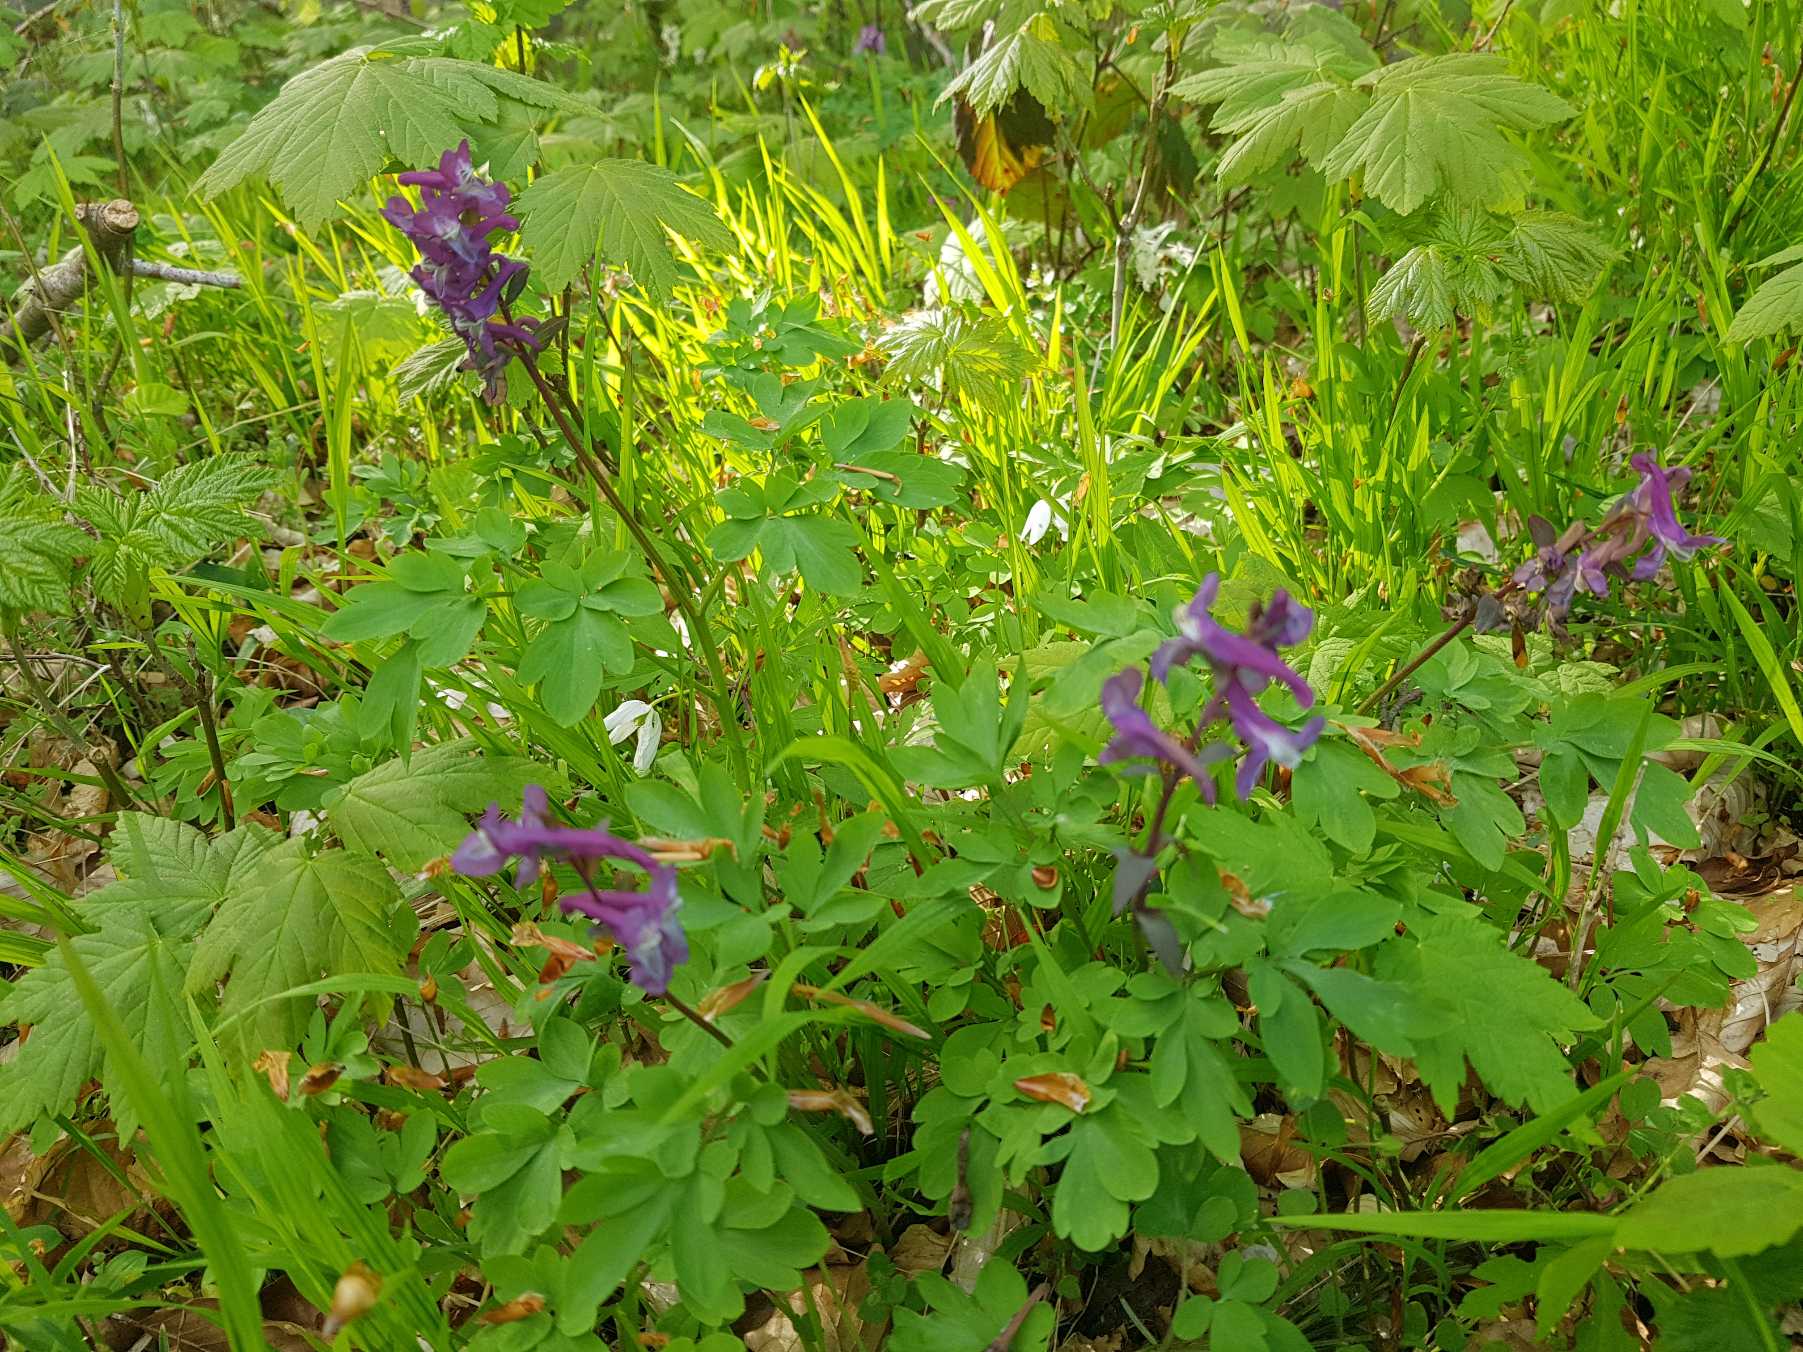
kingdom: Plantae
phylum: Tracheophyta
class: Magnoliopsida
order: Ranunculales
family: Papaveraceae
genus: Corydalis
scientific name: Corydalis cava
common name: Hulrodet lærkespore
